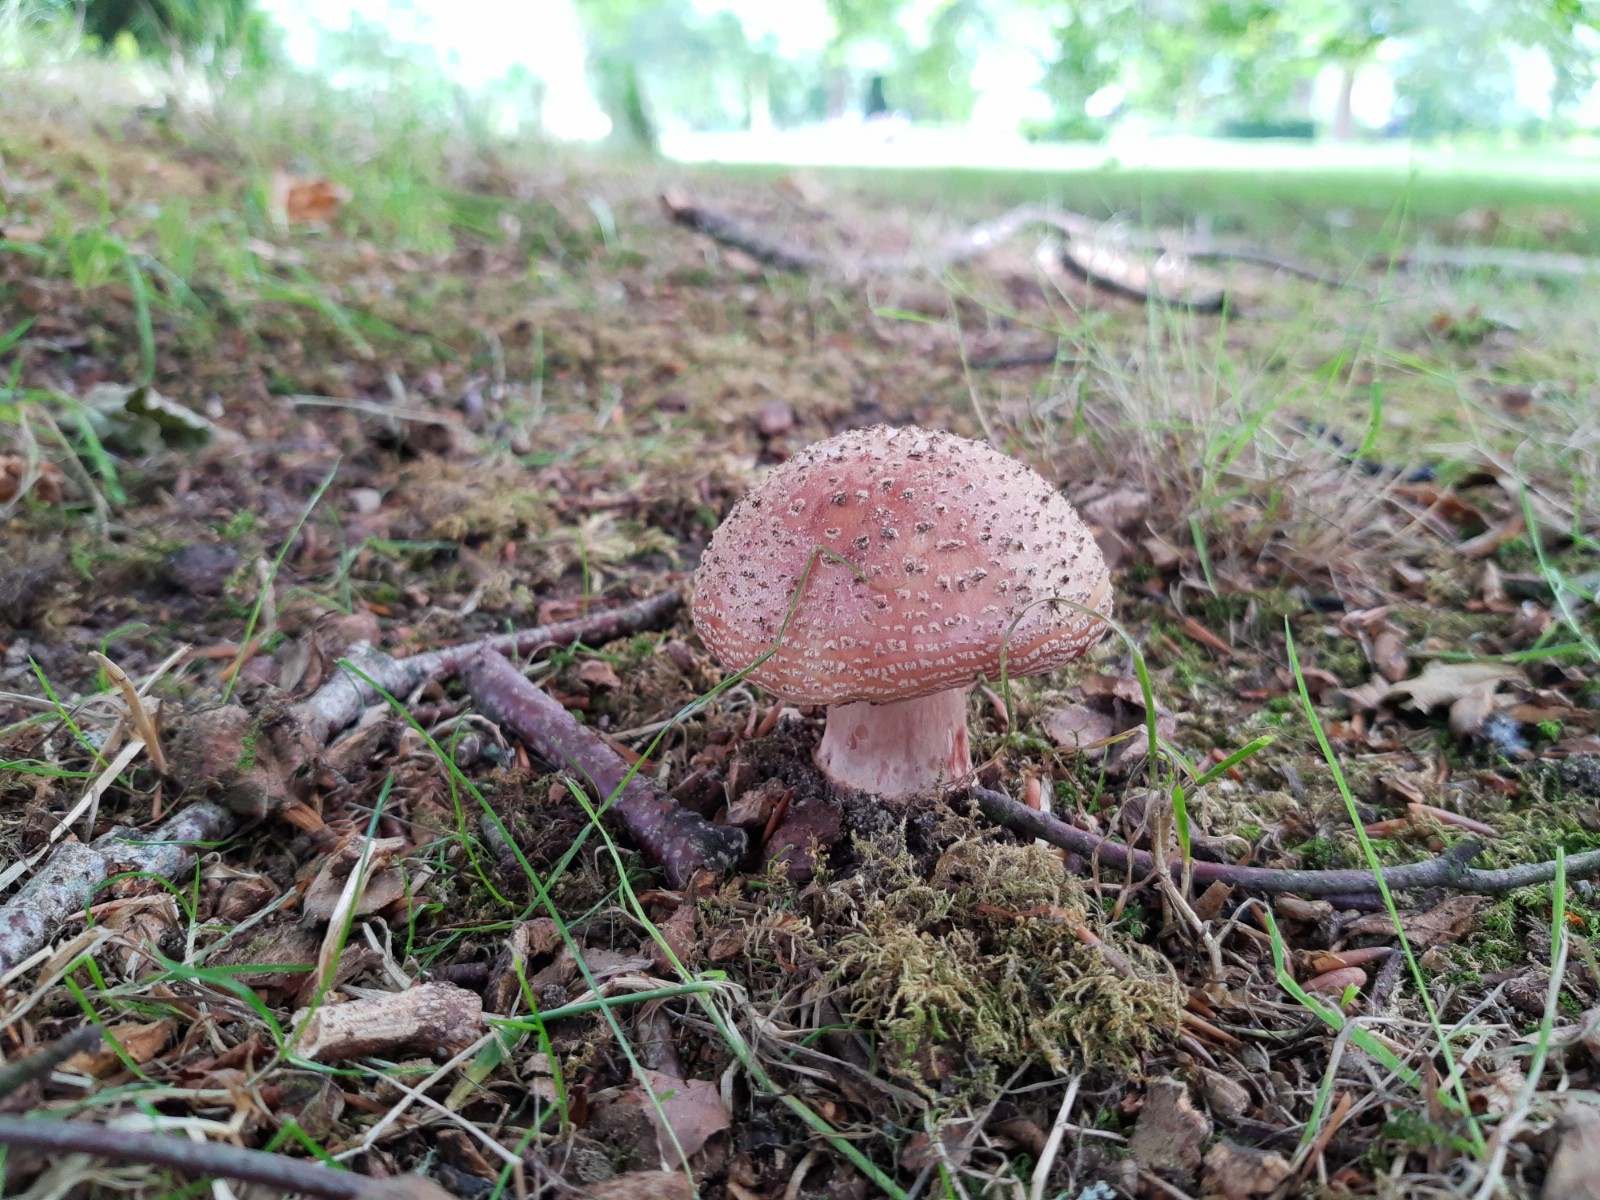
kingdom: Fungi
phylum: Basidiomycota
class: Agaricomycetes
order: Agaricales
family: Amanitaceae
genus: Amanita
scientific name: Amanita rubescens
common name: rødmende fluesvamp
